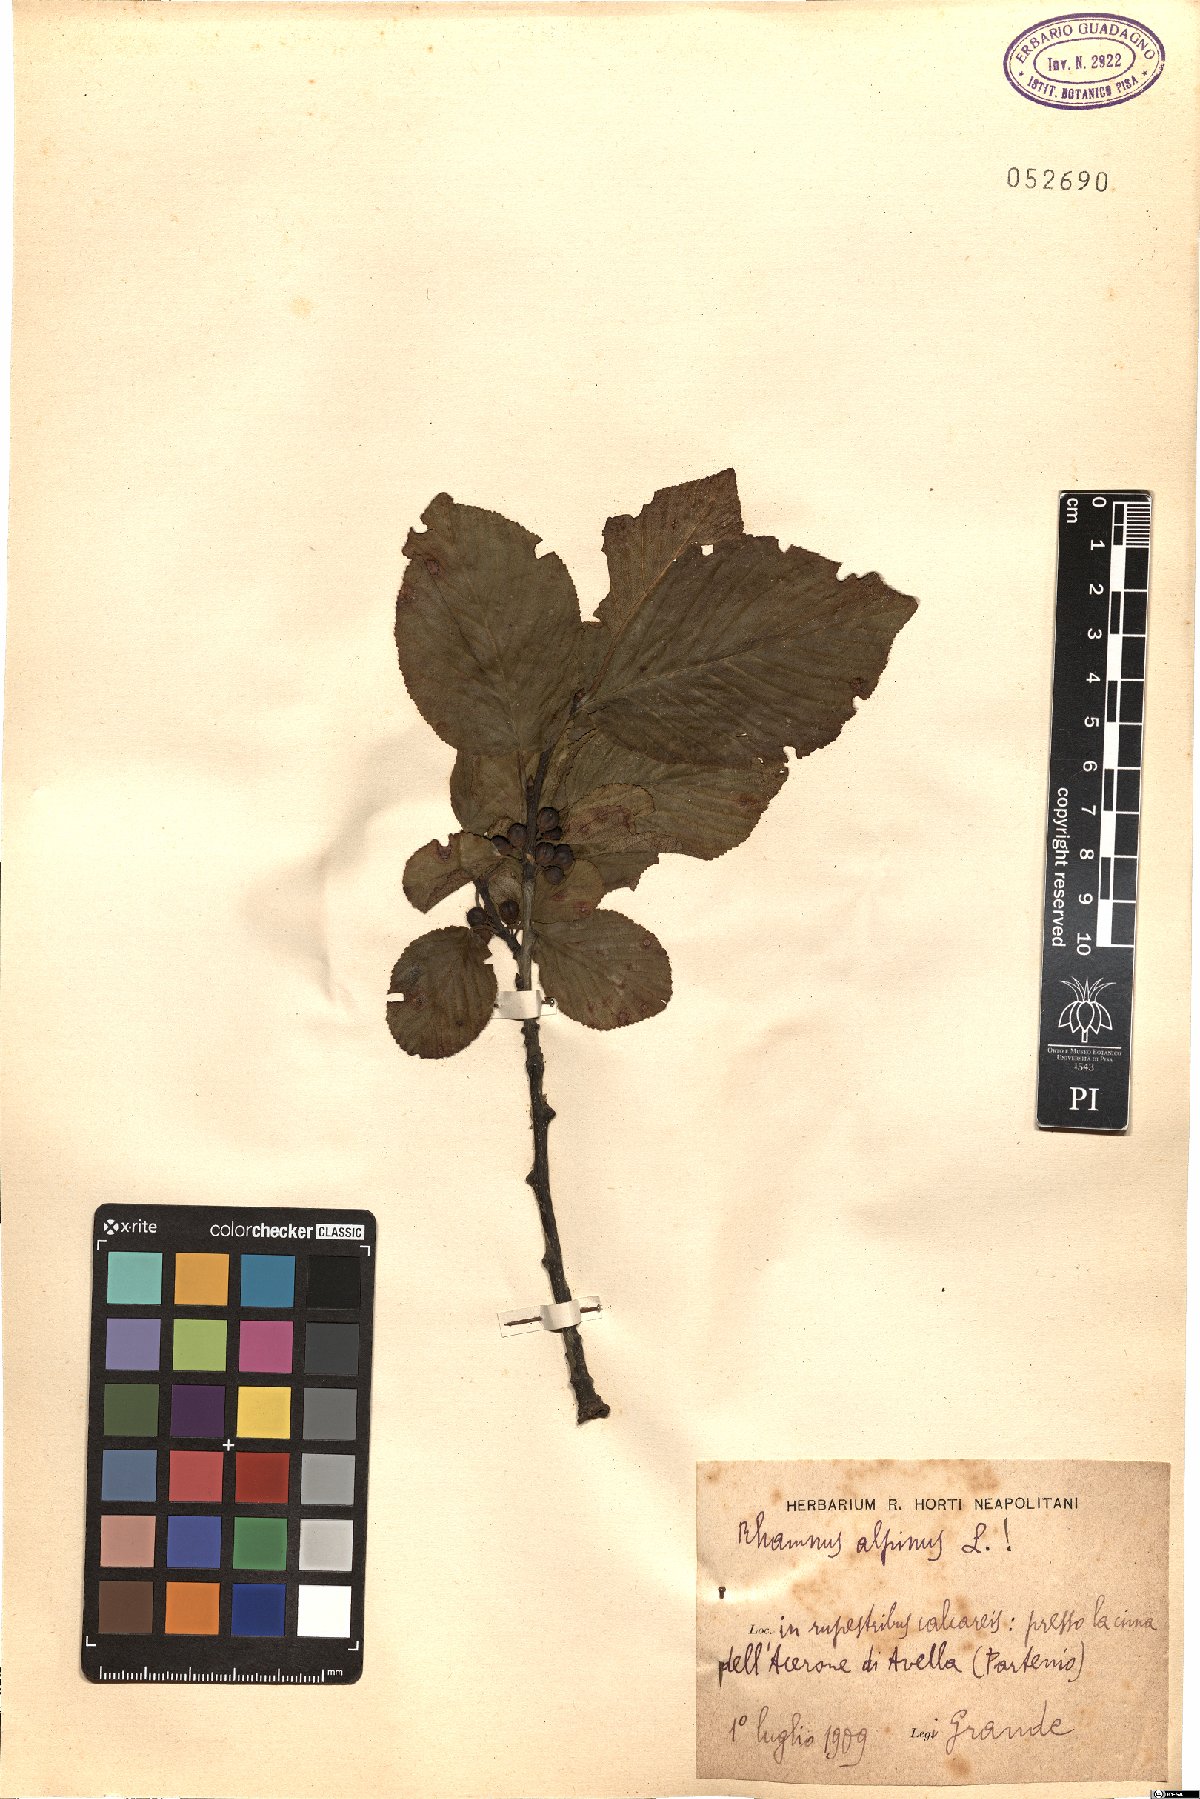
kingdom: Plantae
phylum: Tracheophyta
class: Magnoliopsida
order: Rosales
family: Rhamnaceae
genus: Atadinus
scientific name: Atadinus alpinus
